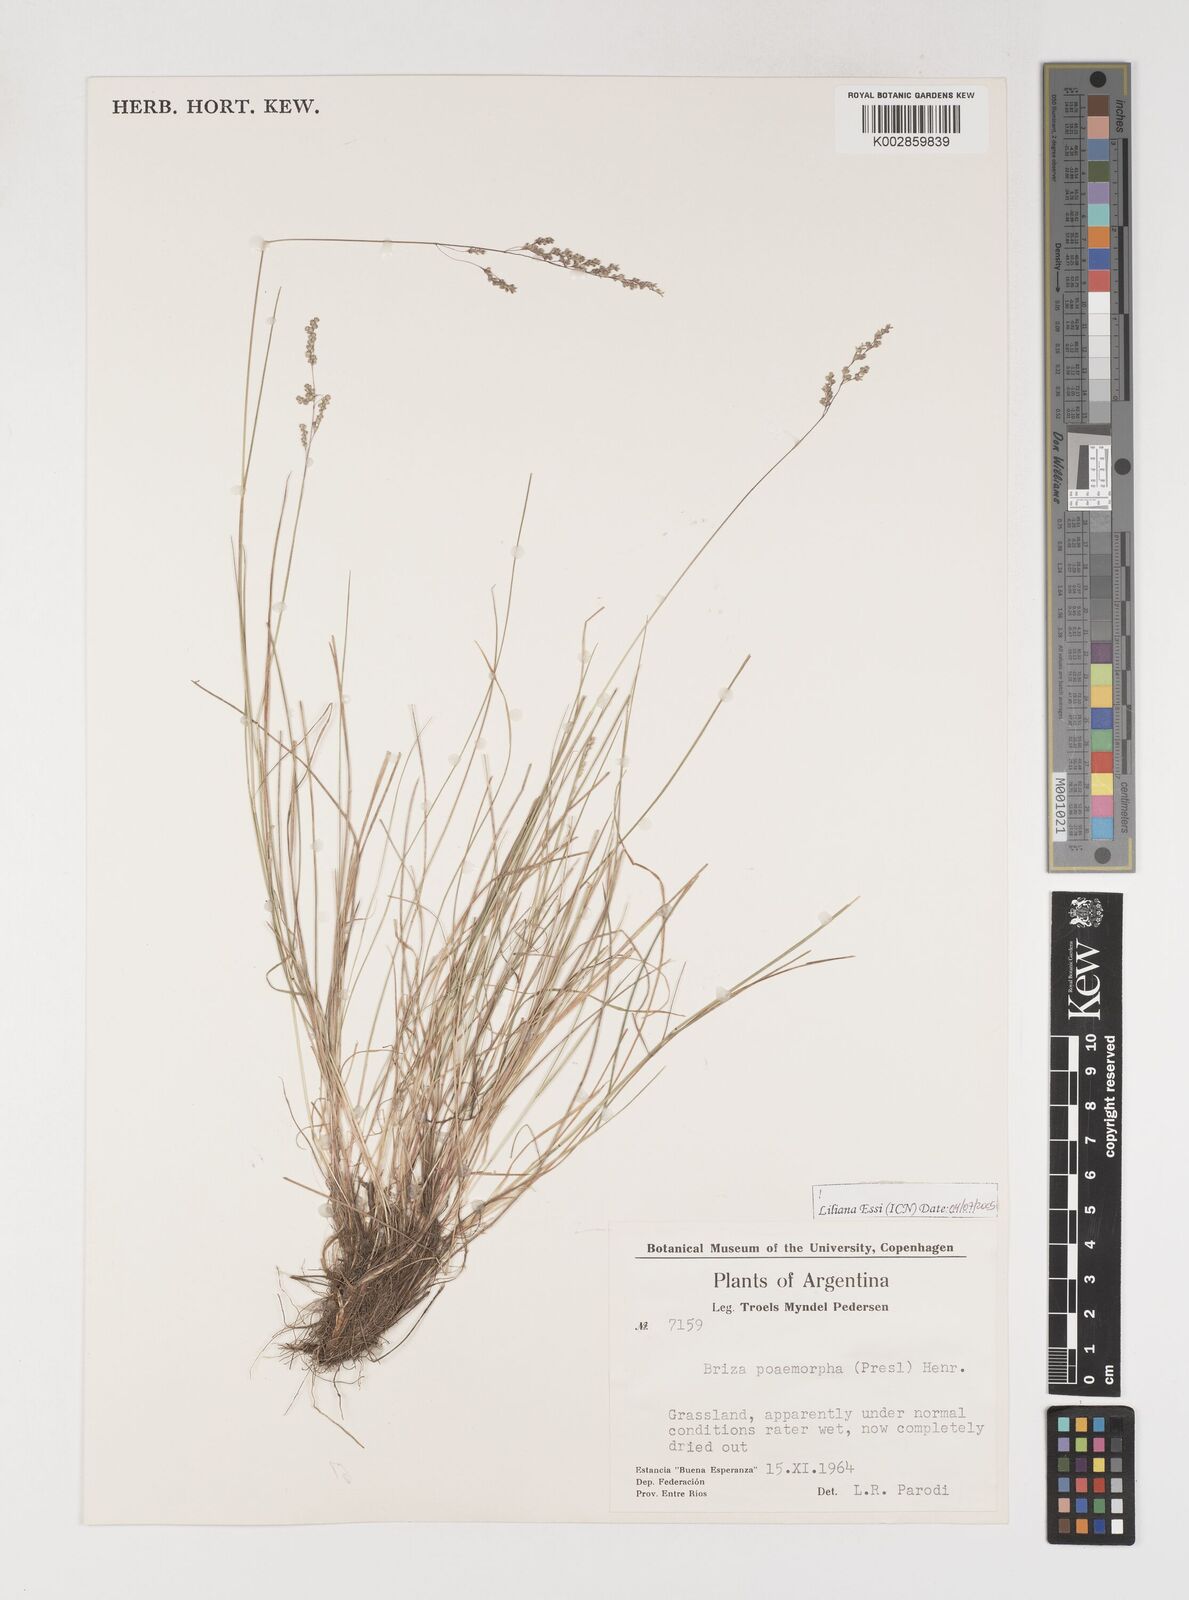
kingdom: Plantae
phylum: Tracheophyta
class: Liliopsida
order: Poales
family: Poaceae
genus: Microbriza
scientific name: Microbriza poimorpha
